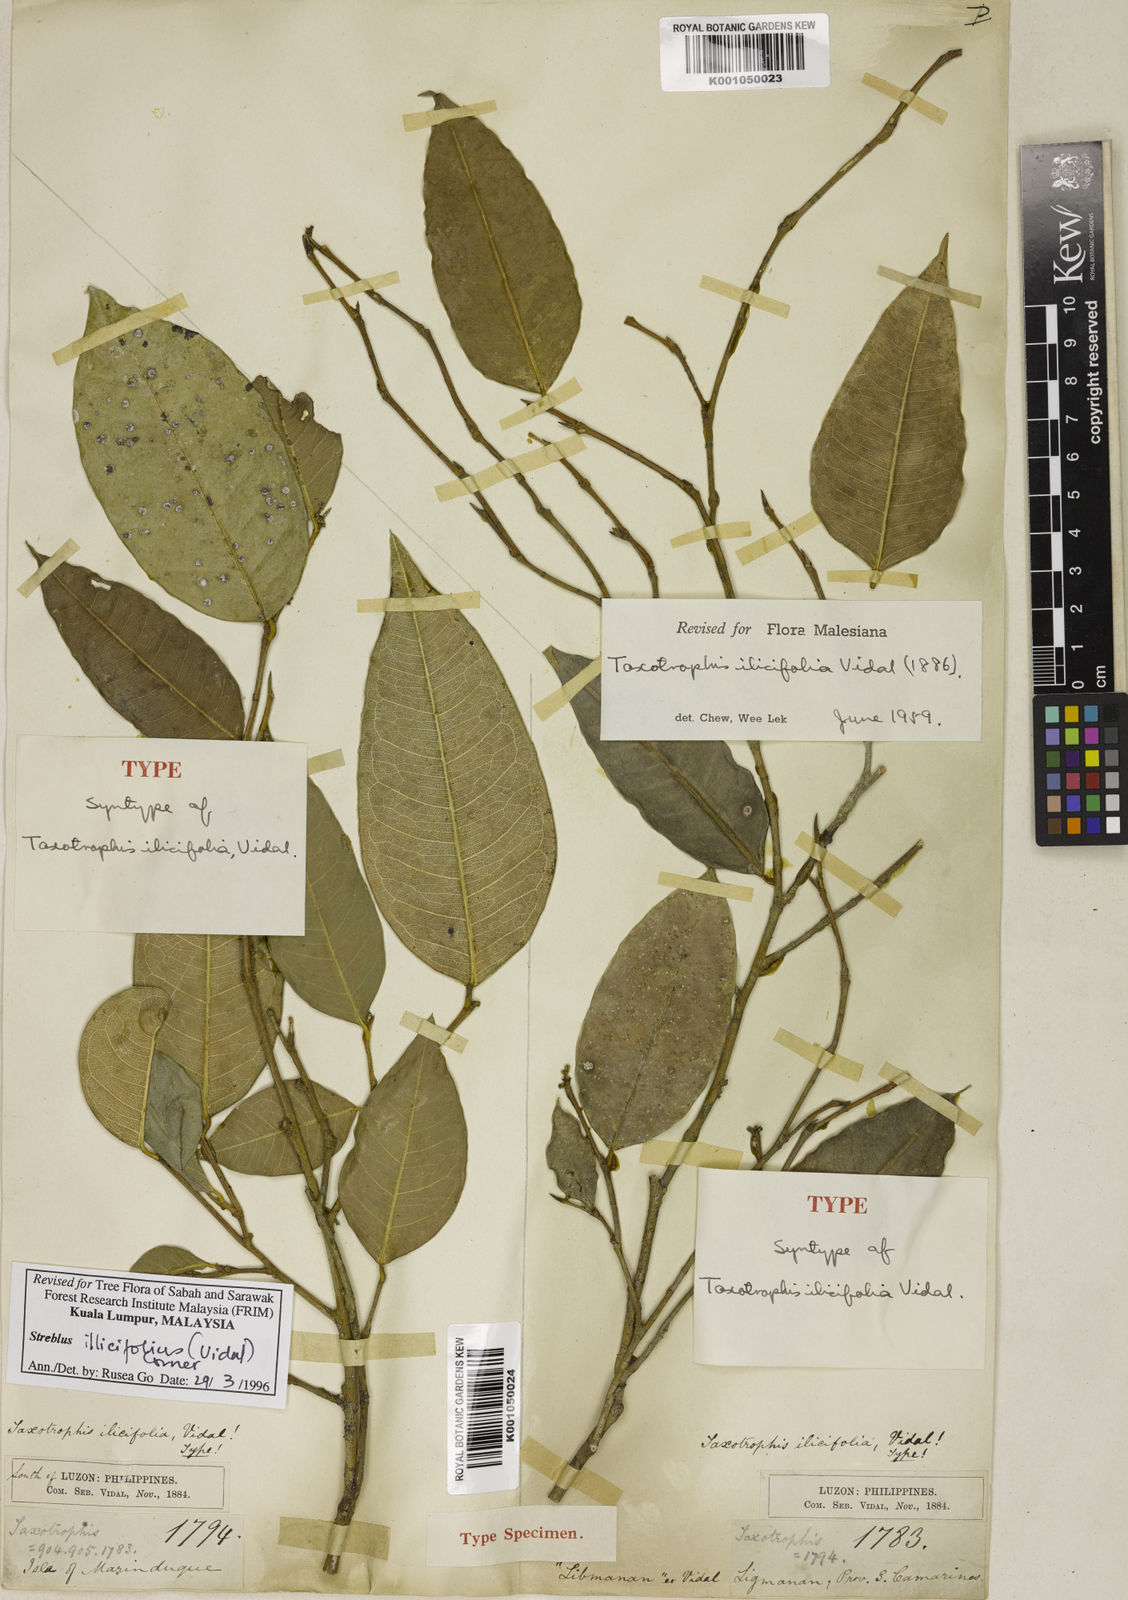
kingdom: Plantae
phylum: Tracheophyta
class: Magnoliopsida
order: Rosales
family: Moraceae
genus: Taxotrophis
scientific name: Taxotrophis ilicifolia
